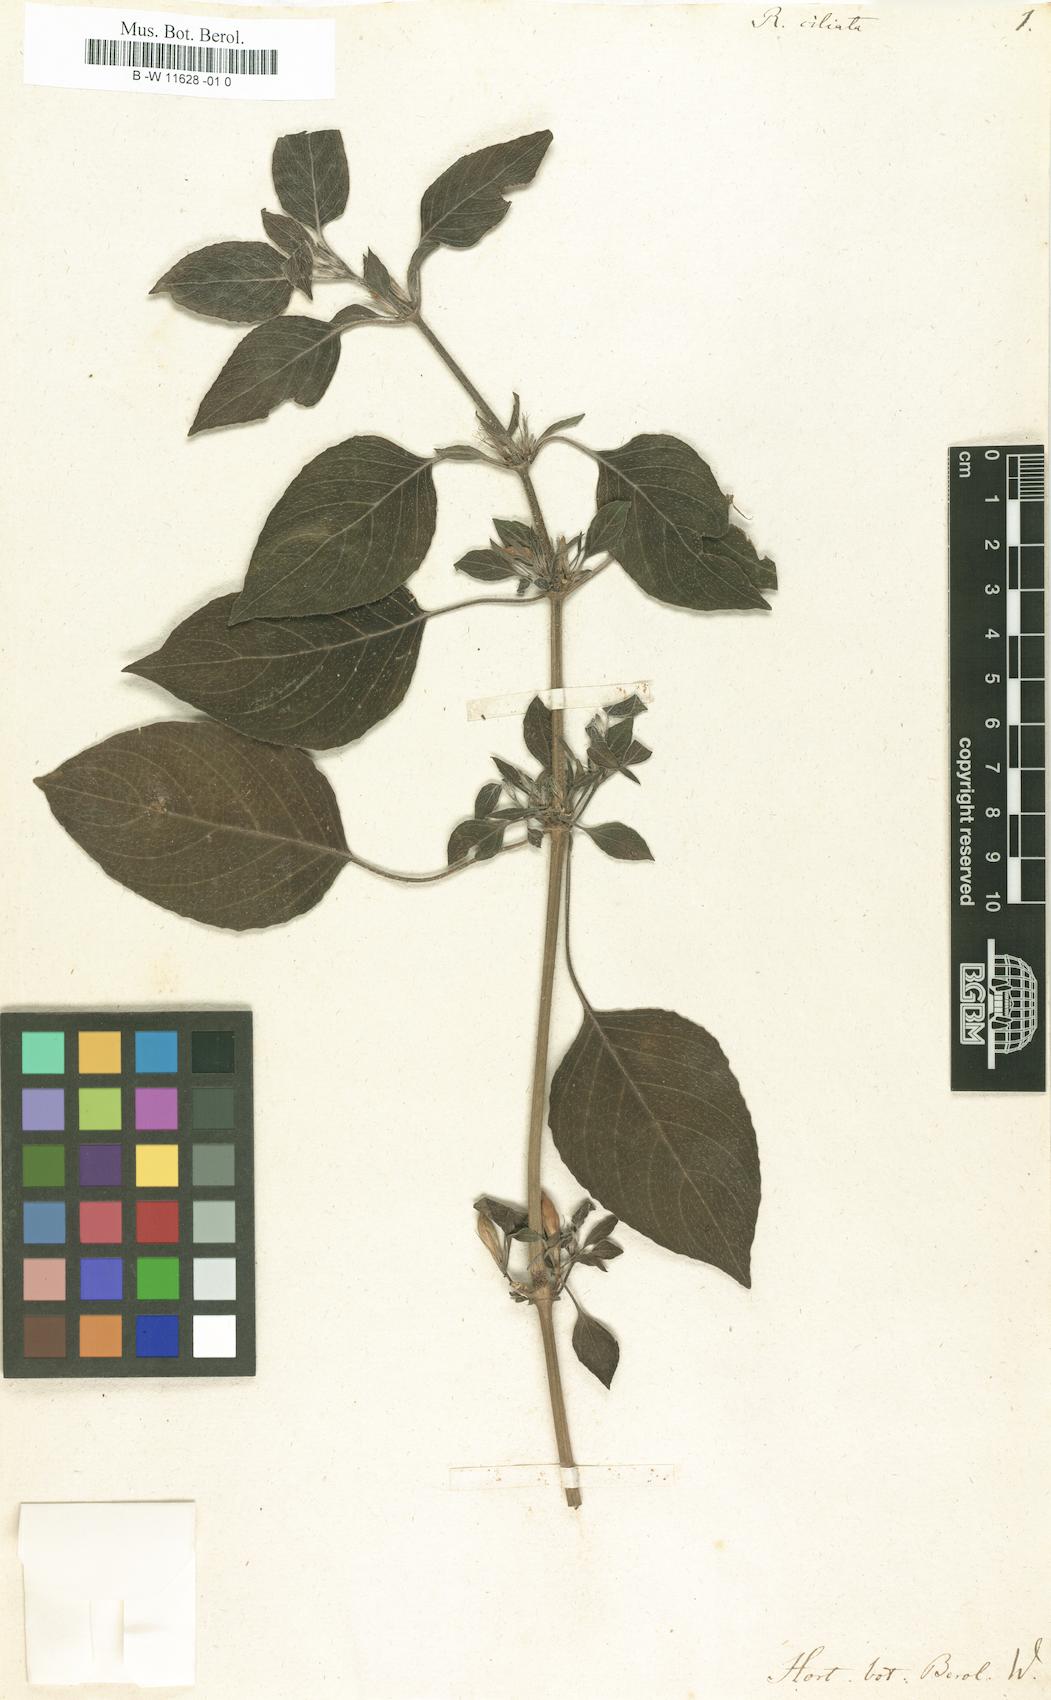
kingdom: Plantae
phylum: Tracheophyta
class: Magnoliopsida
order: Lamiales
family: Acanthaceae
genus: Ruellia
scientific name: Ruellia ciliata
